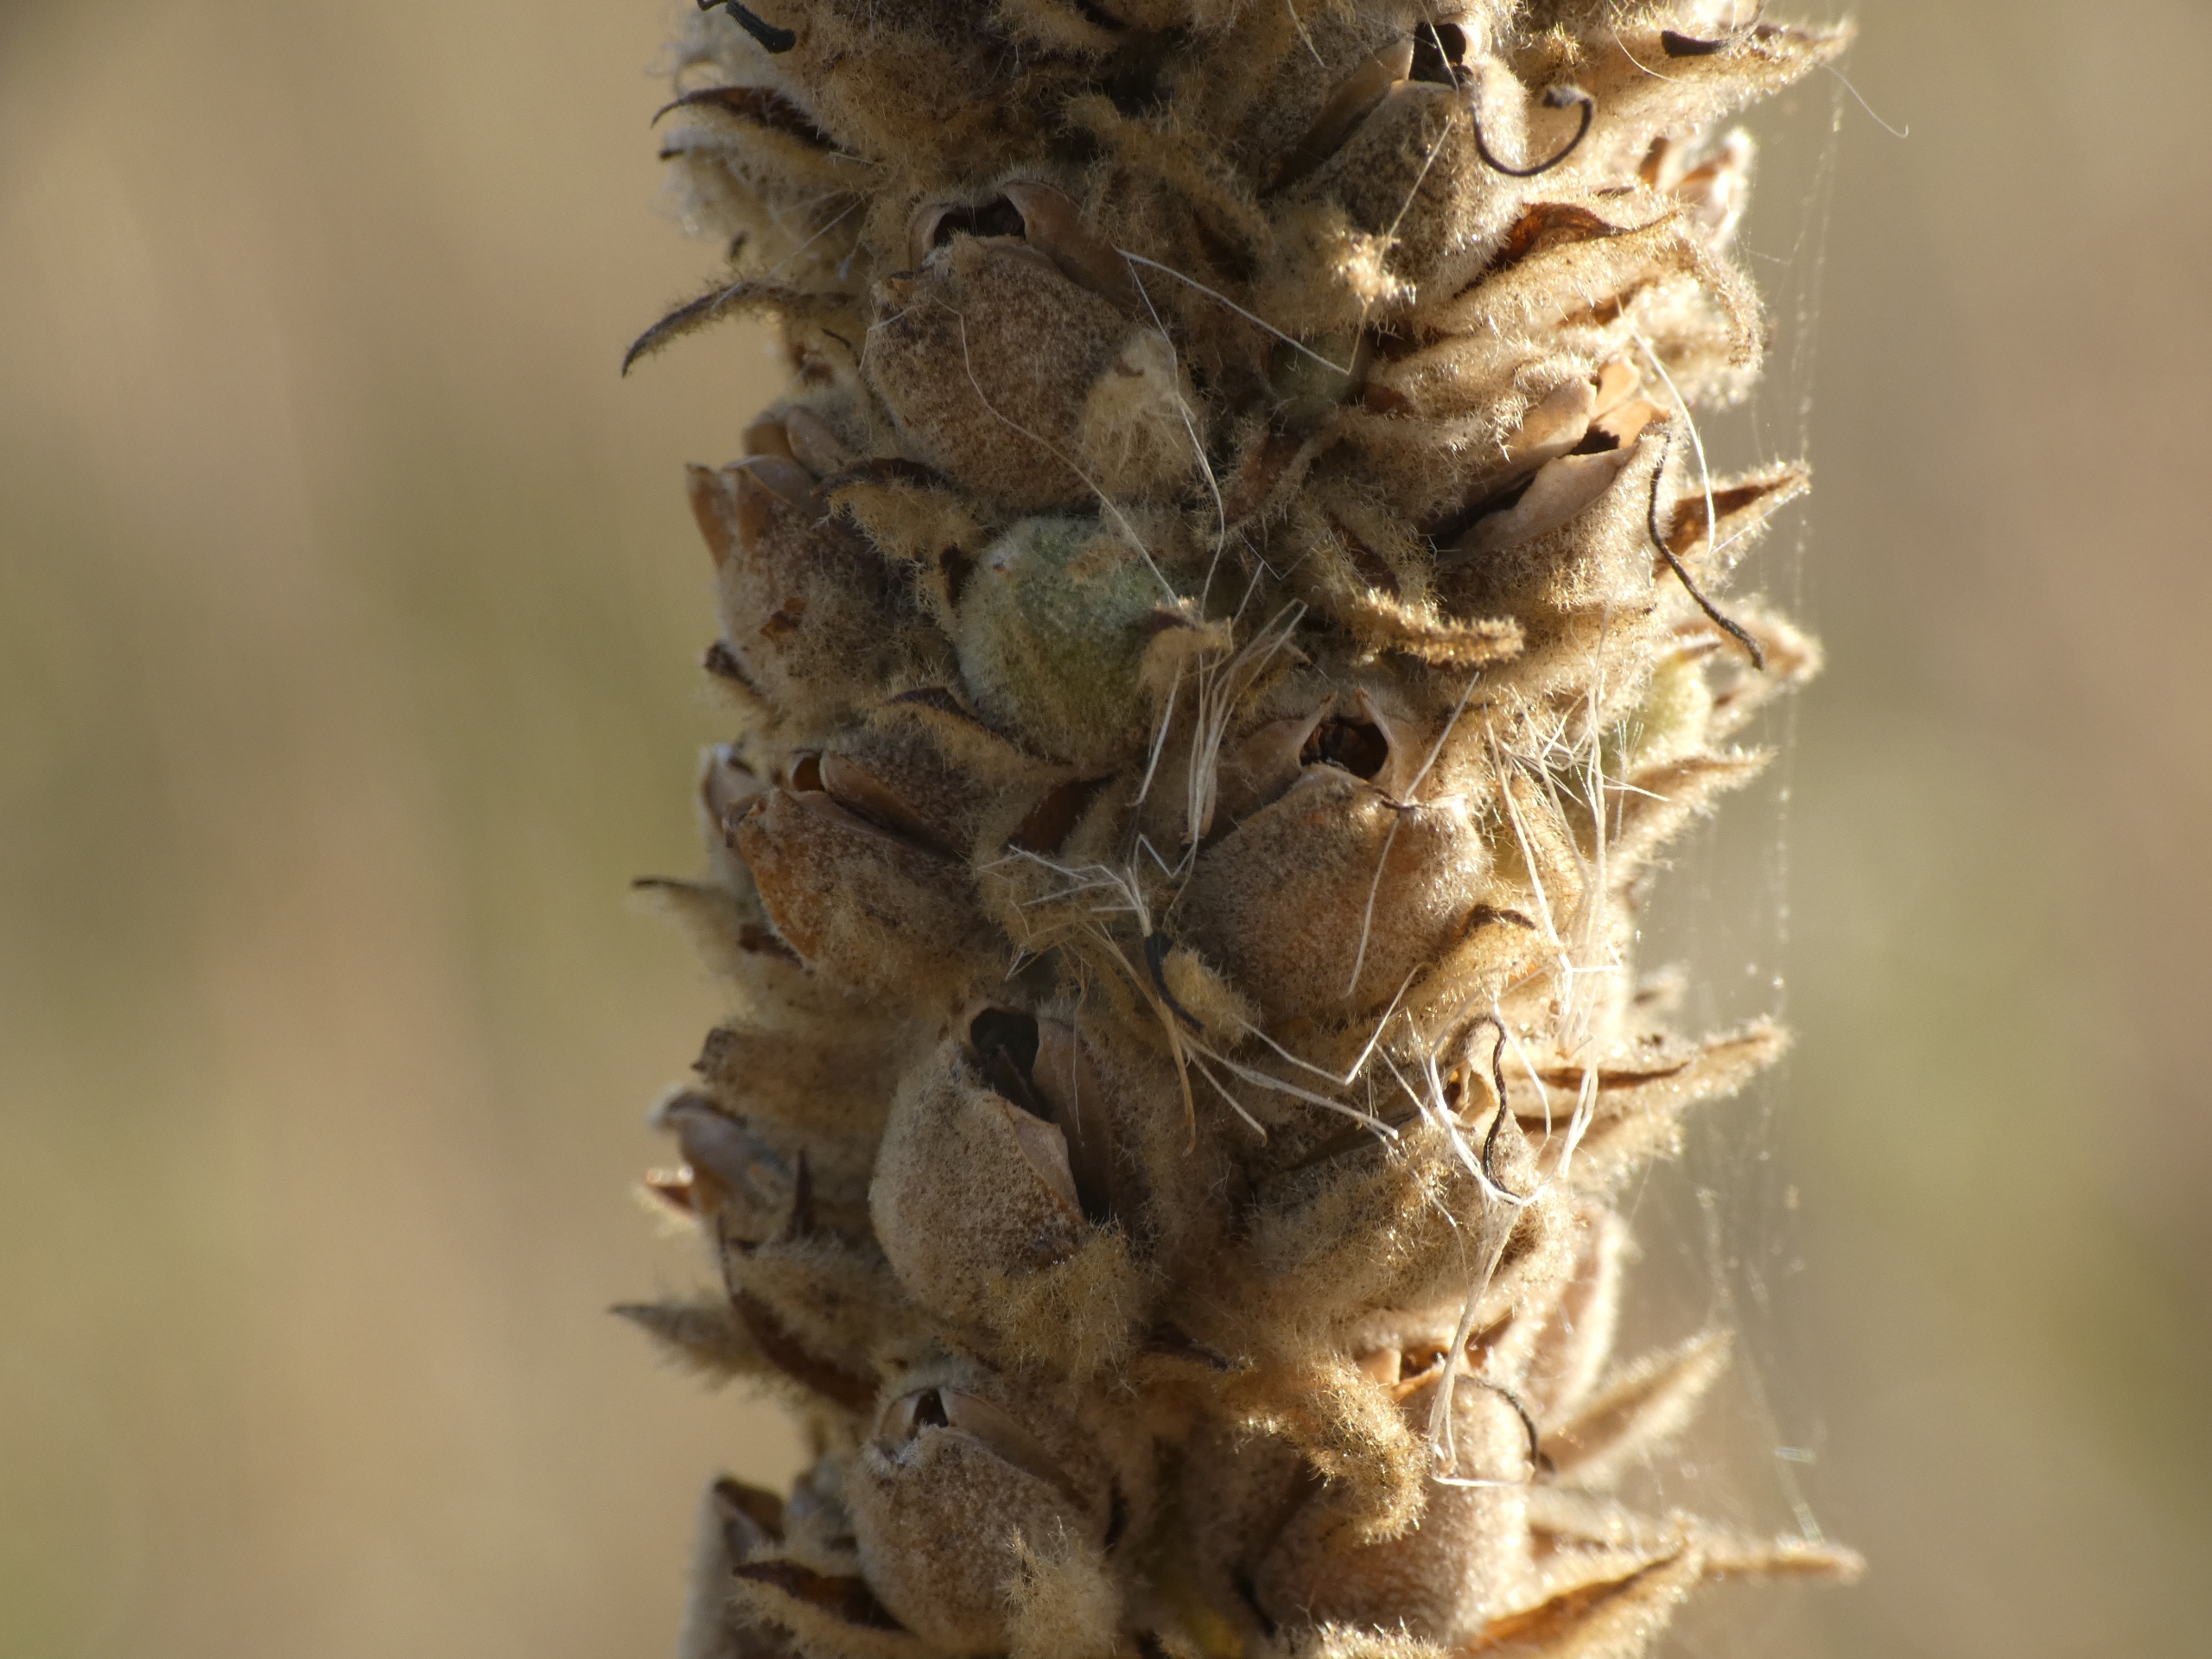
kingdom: Plantae
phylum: Tracheophyta
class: Magnoliopsida
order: Lamiales
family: Scrophulariaceae
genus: Verbascum
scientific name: Verbascum thapsus
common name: Filtbladet kongelys
